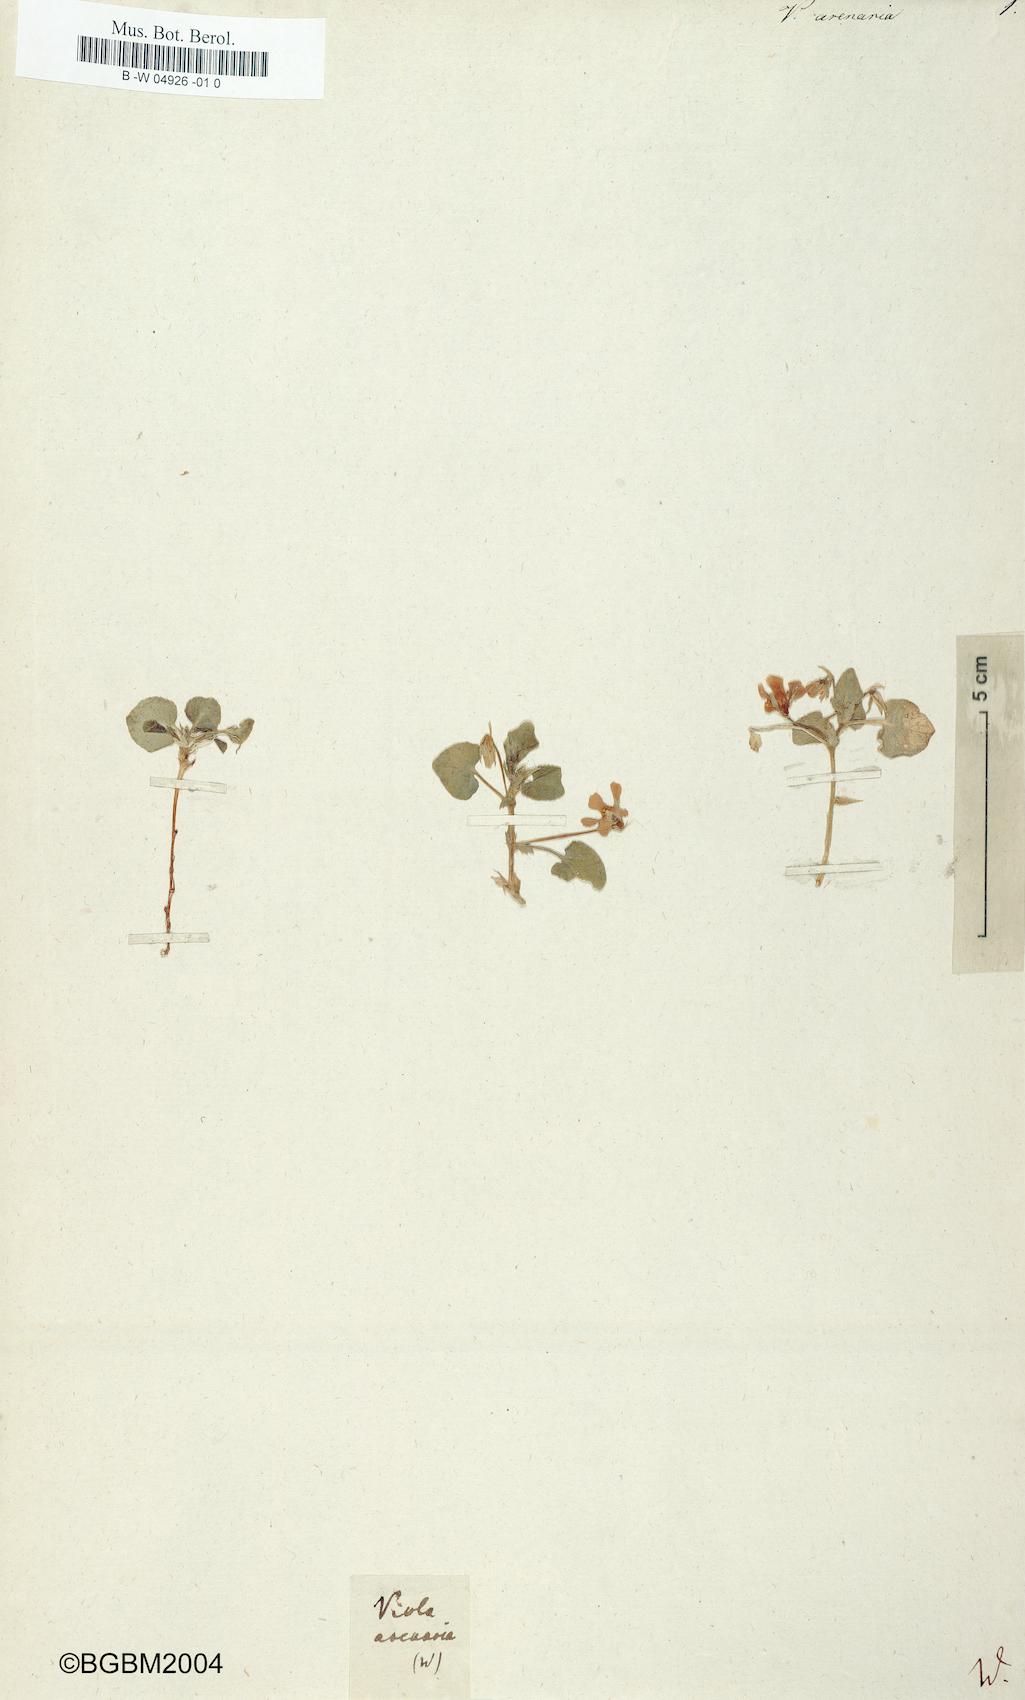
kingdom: Plantae
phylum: Tracheophyta
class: Magnoliopsida
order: Malpighiales
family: Violaceae
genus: Viola
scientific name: Viola rupestris
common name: Teesdale violet
